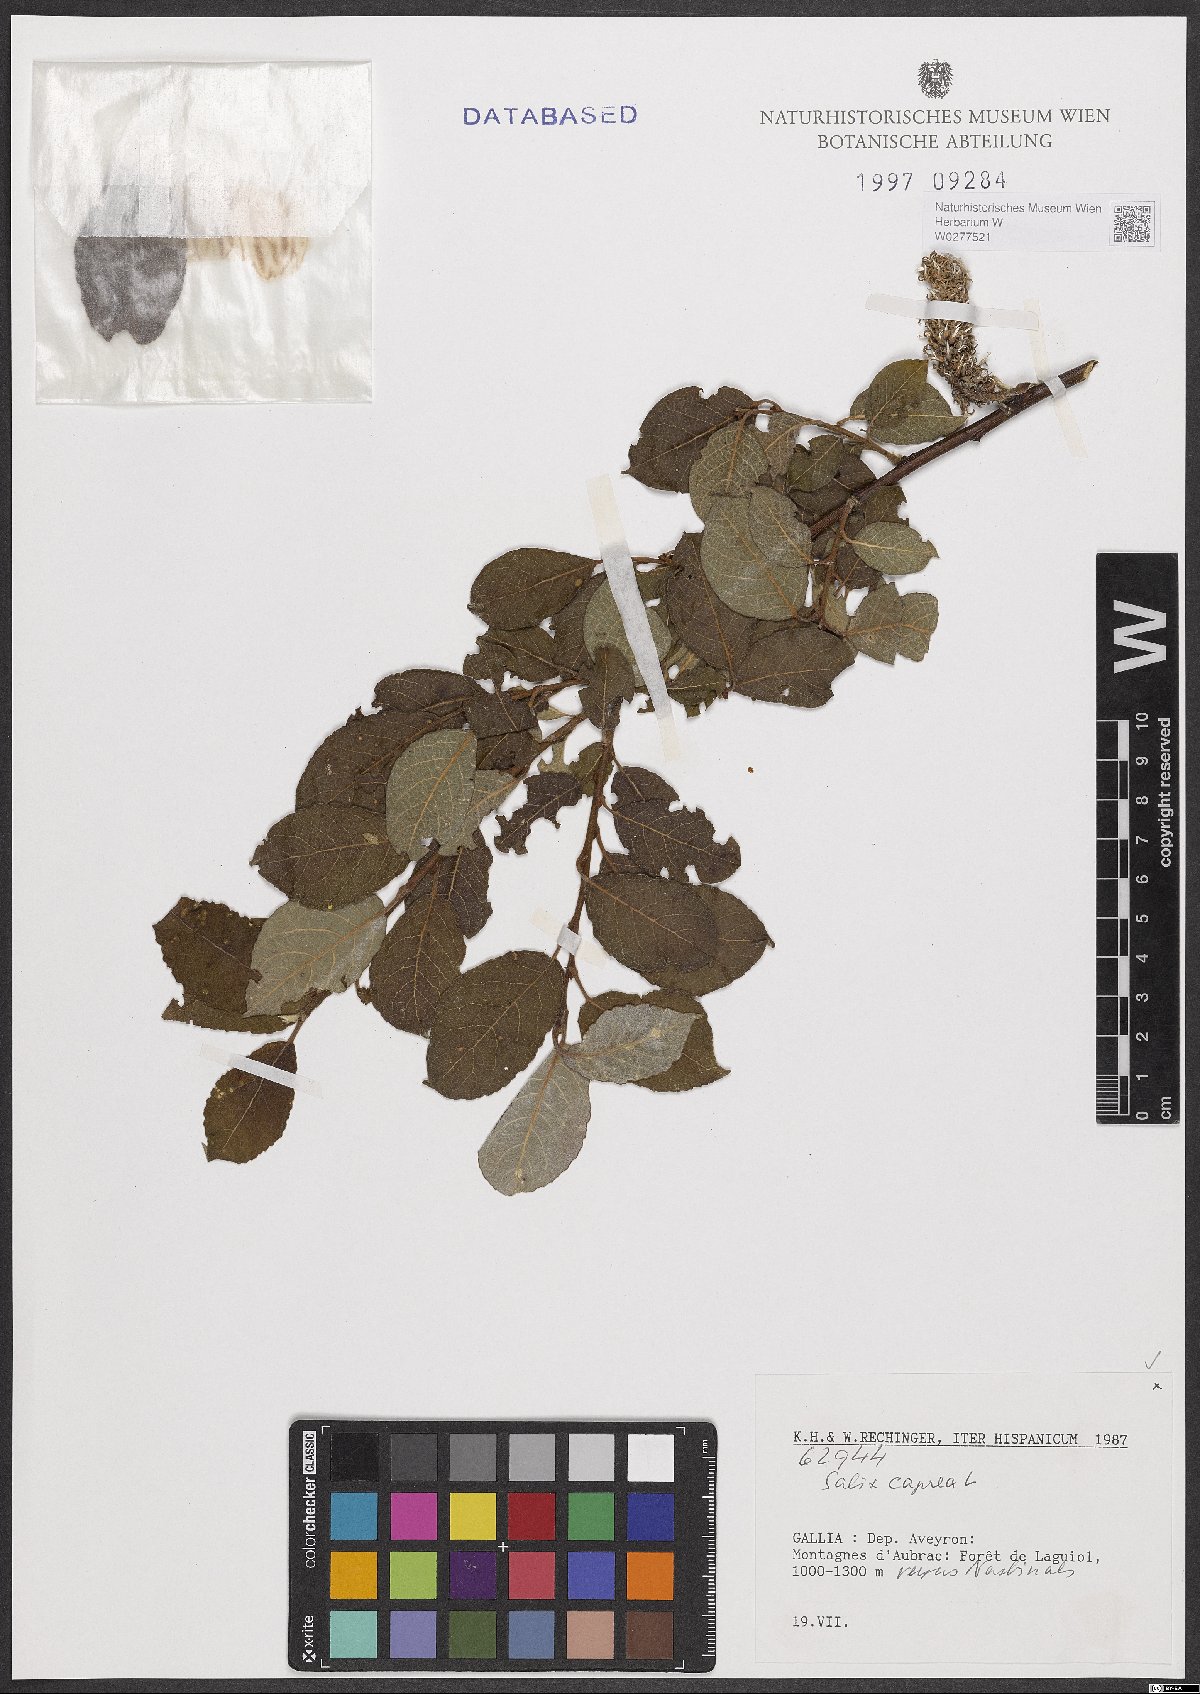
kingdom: Plantae
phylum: Tracheophyta
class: Magnoliopsida
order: Malpighiales
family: Salicaceae
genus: Salix
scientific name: Salix caprea
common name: Goat willow
